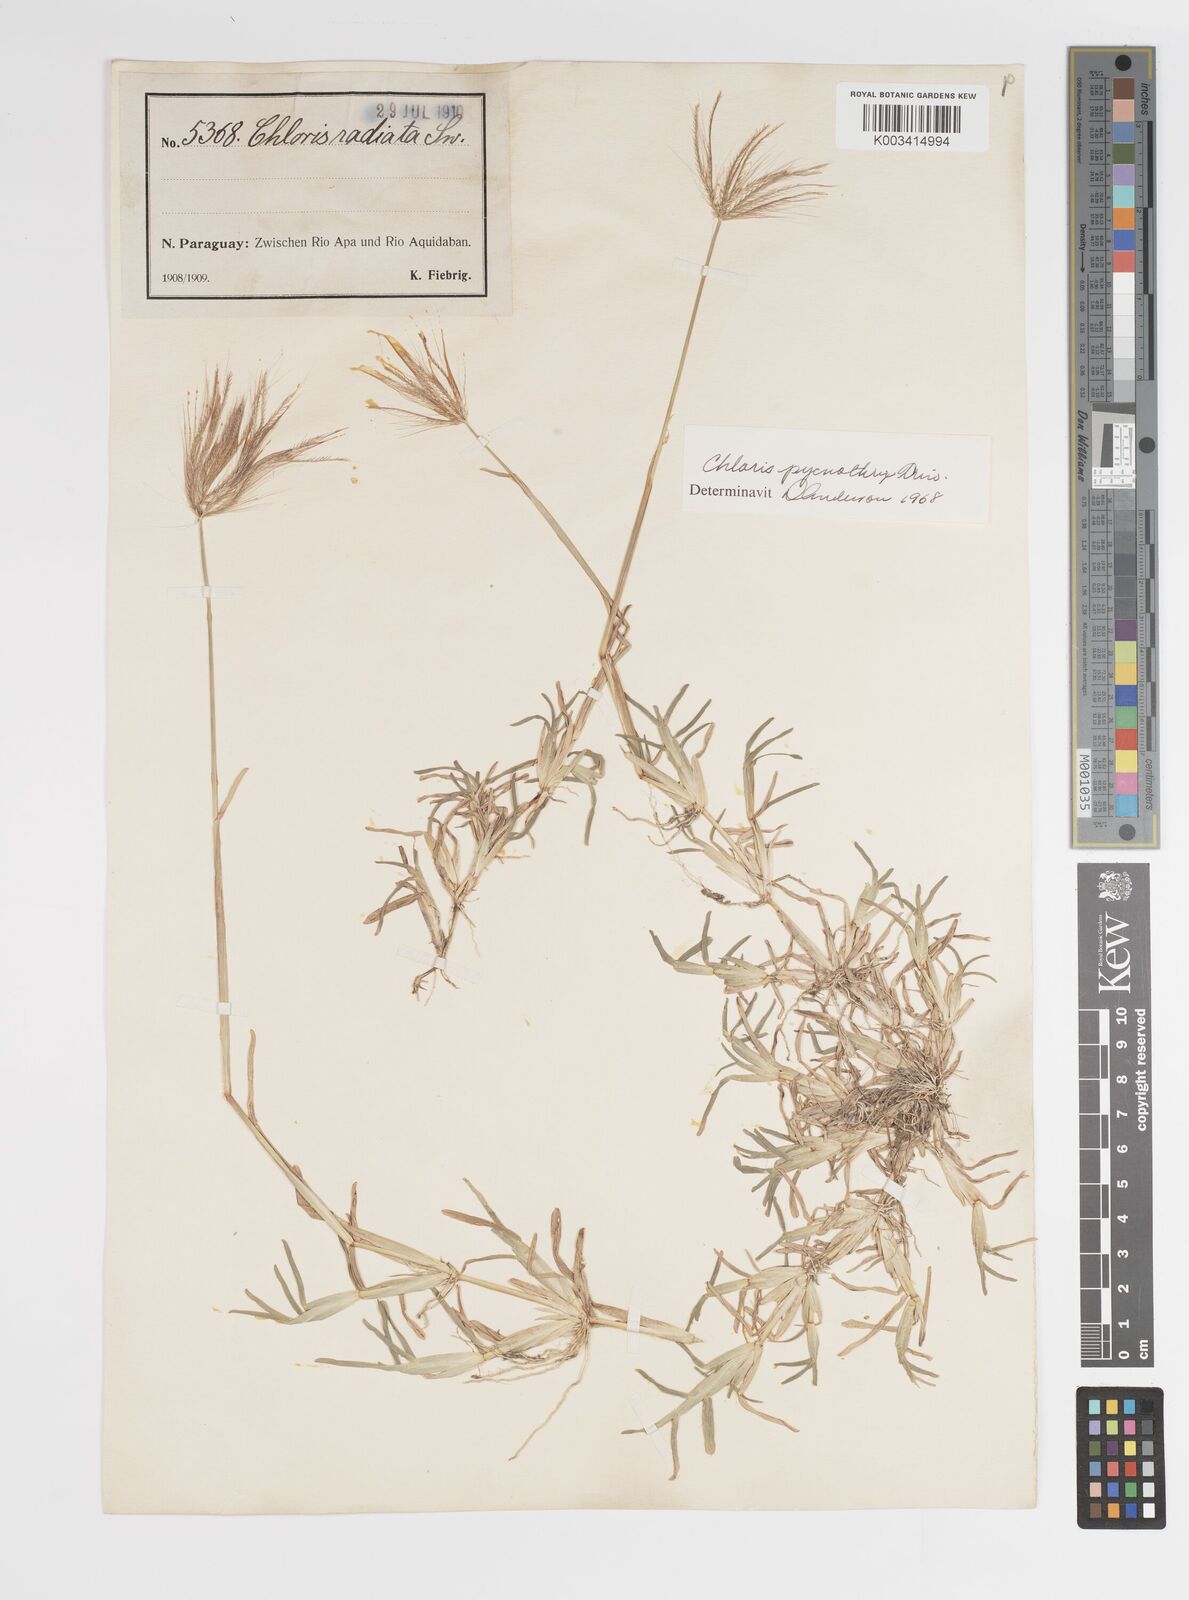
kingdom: Plantae
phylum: Tracheophyta
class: Liliopsida
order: Poales
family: Poaceae
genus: Chloris
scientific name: Chloris pycnothrix
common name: Spiderweb chloris
